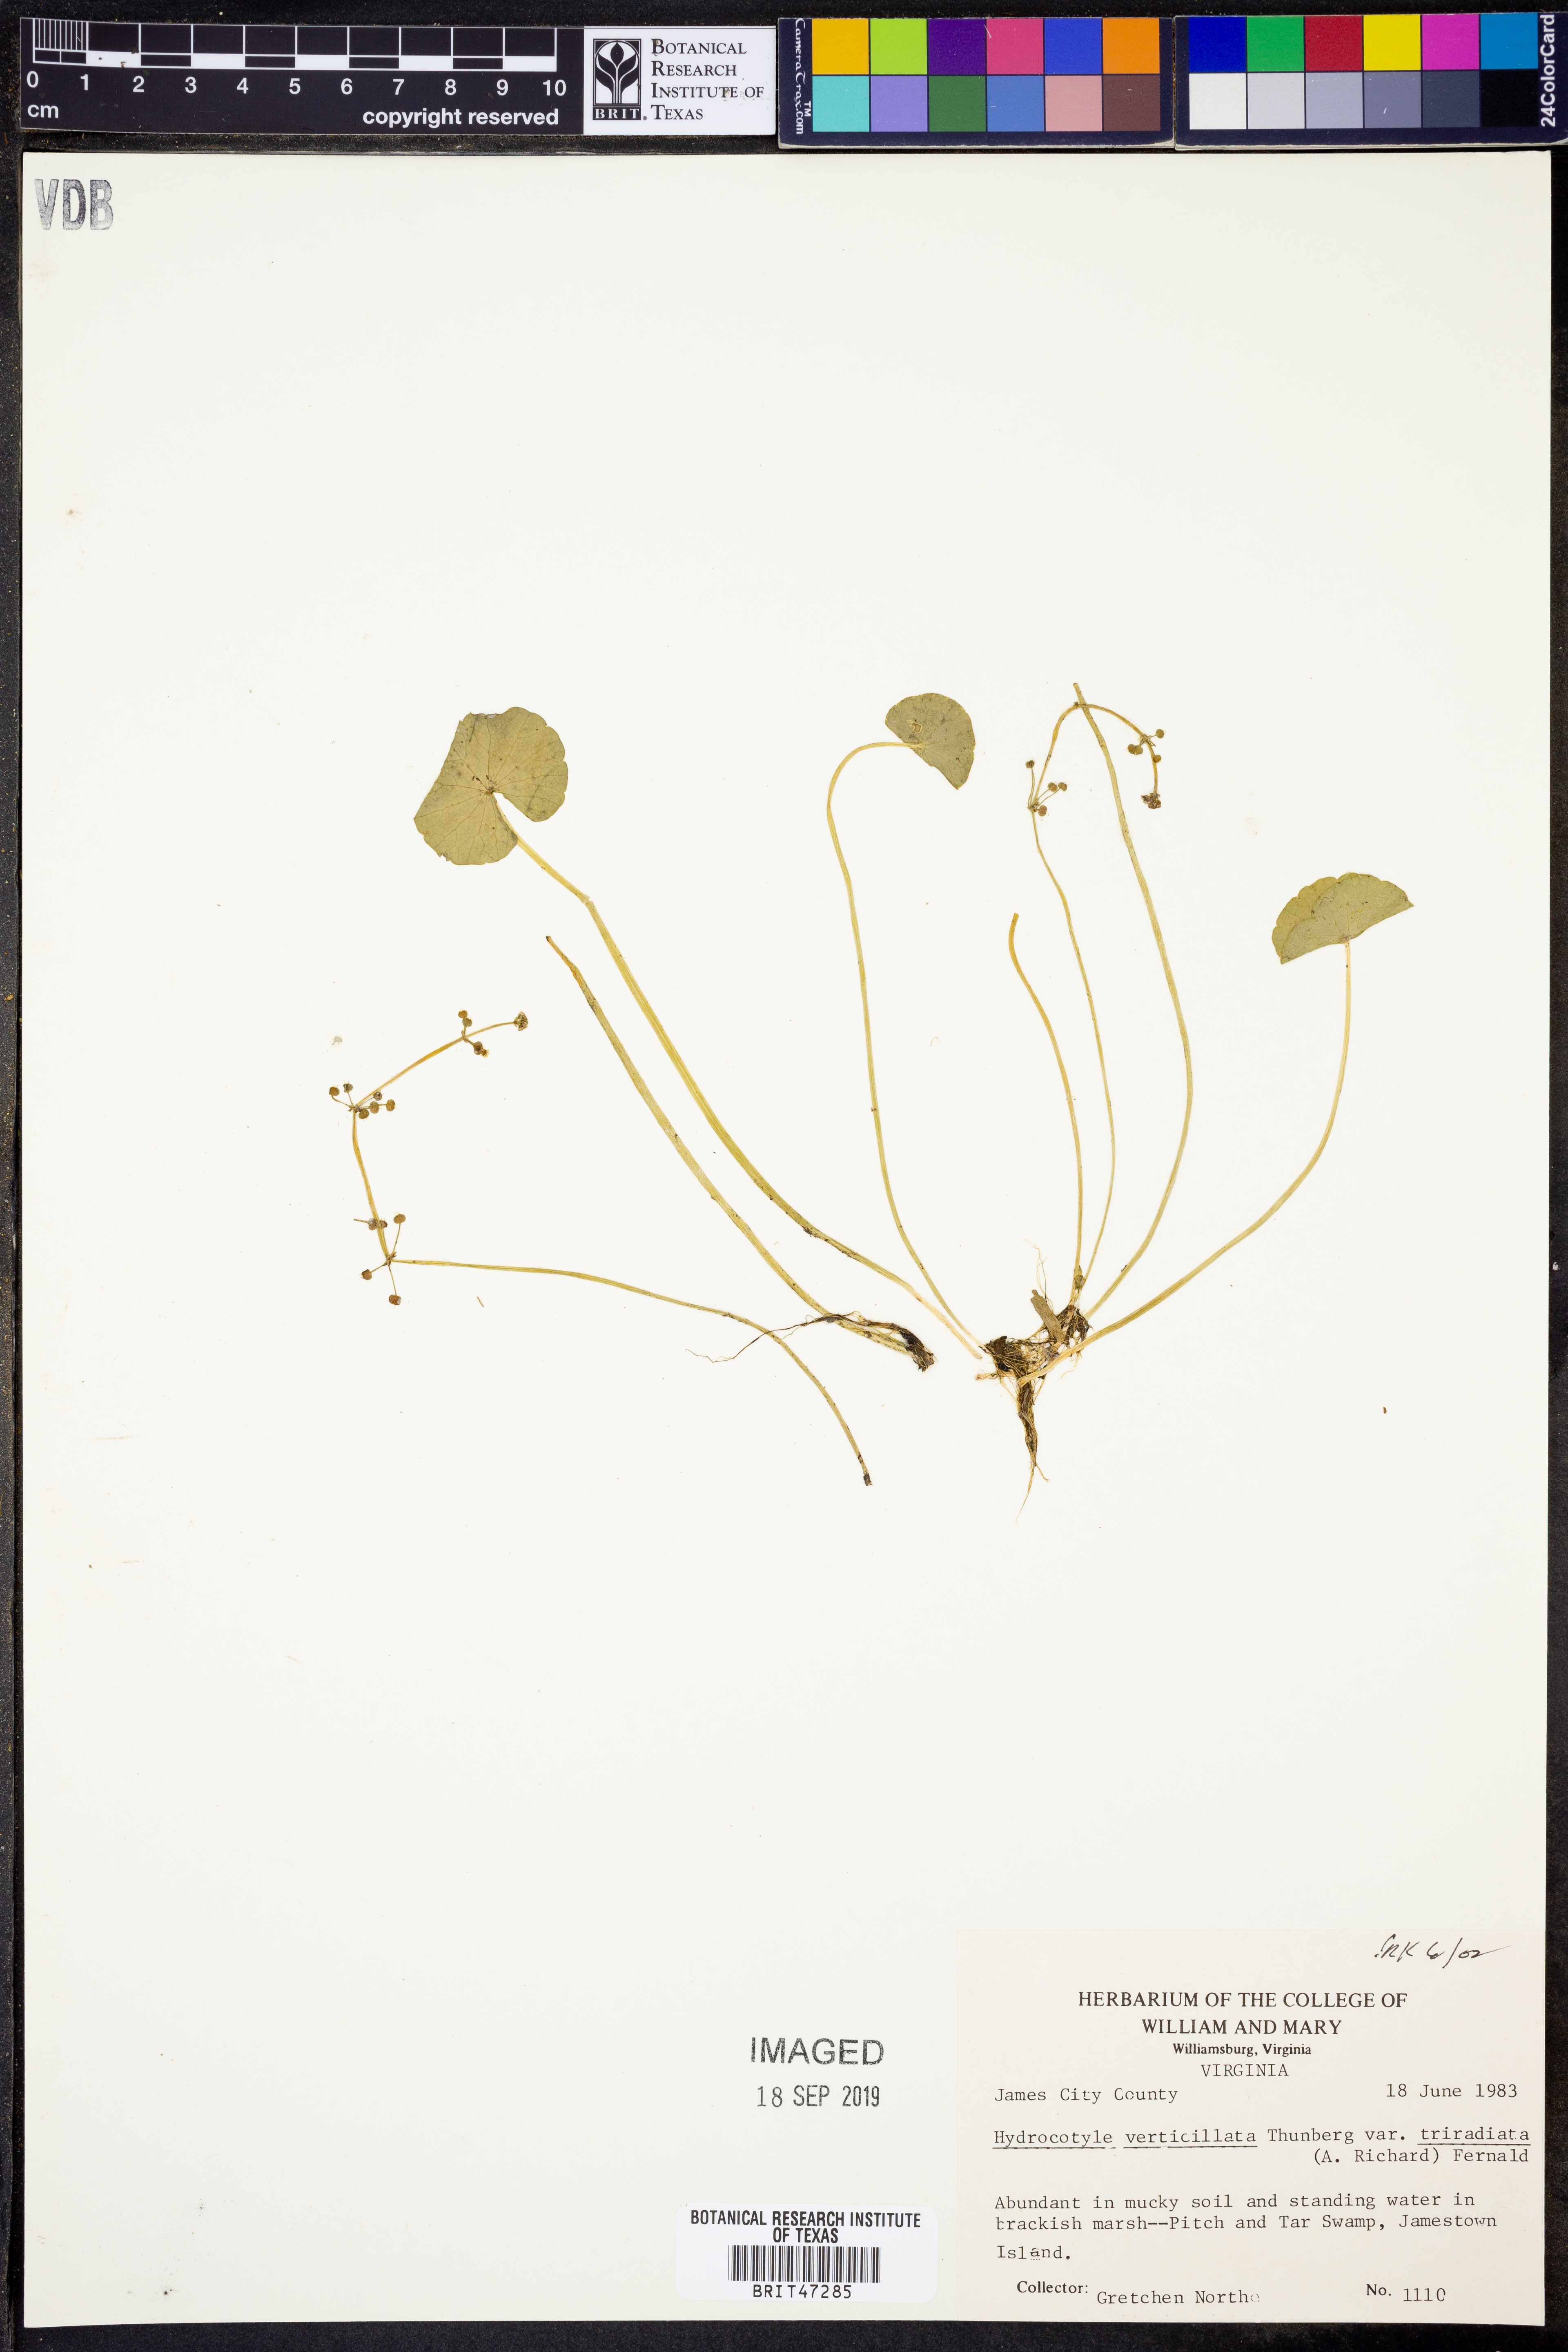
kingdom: Plantae
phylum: Tracheophyta
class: Magnoliopsida
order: Apiales
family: Araliaceae
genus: Hydrocotyle
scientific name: Hydrocotyle bonariensis
